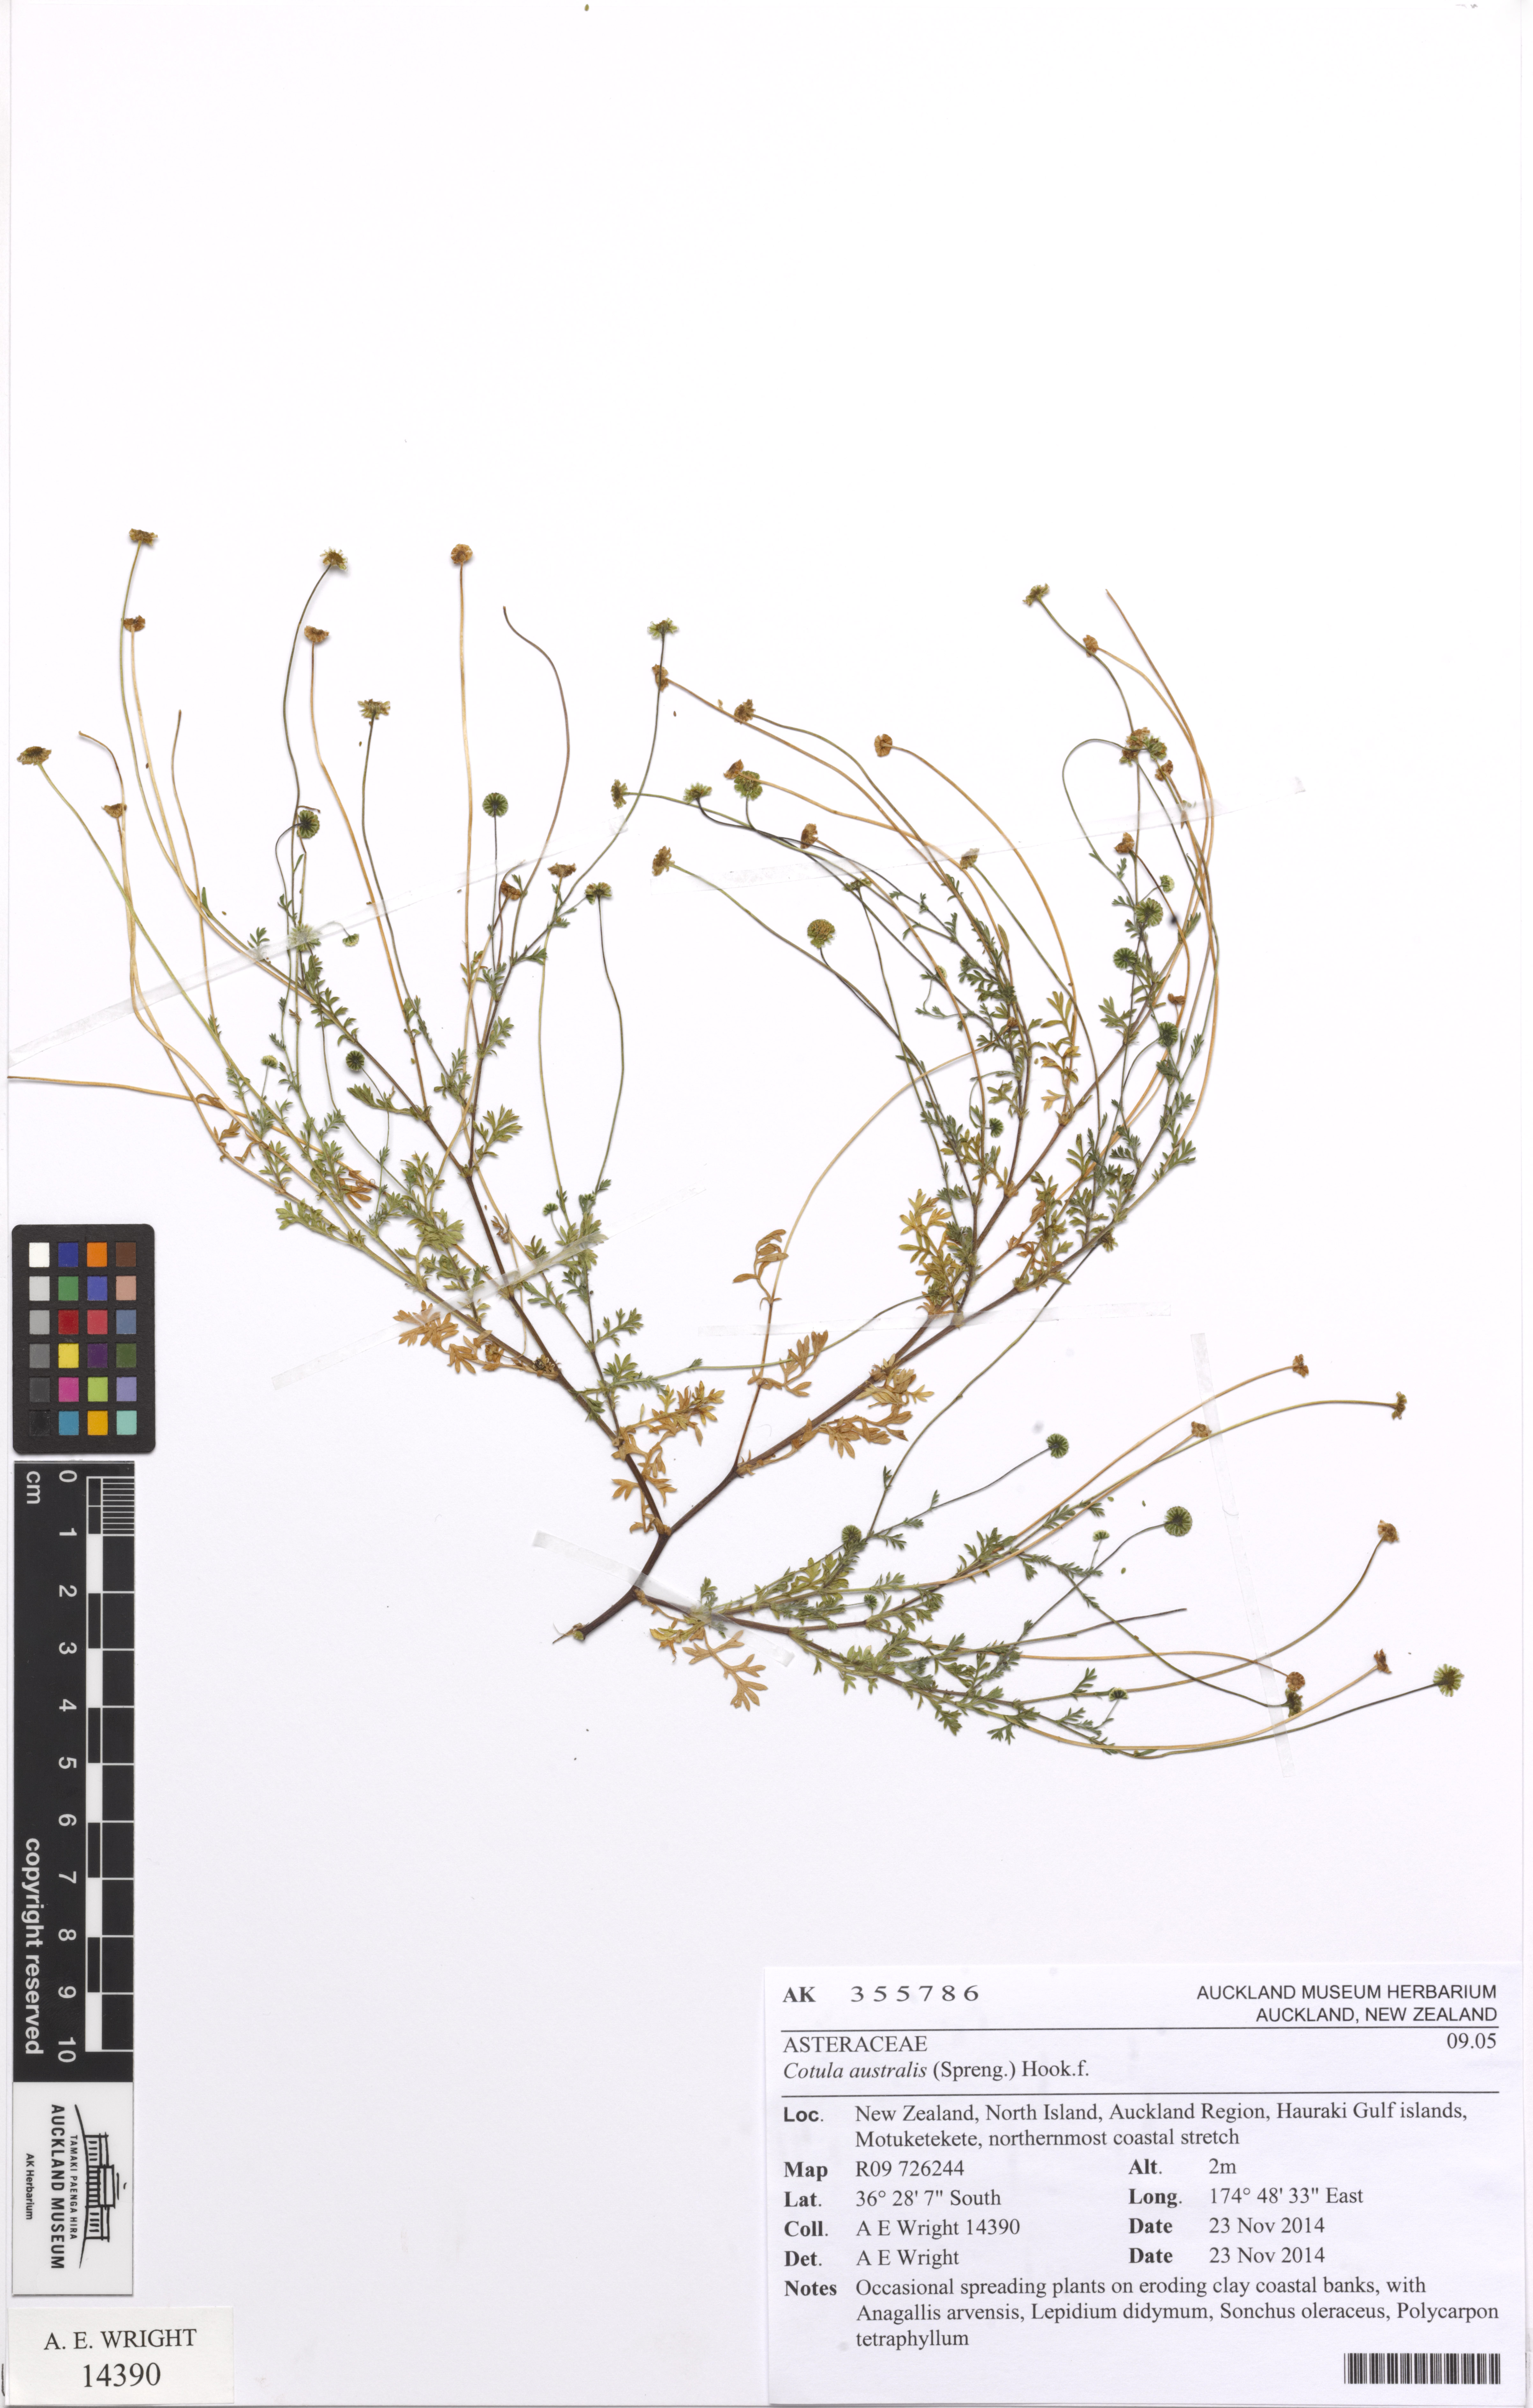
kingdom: Plantae
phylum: Tracheophyta
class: Magnoliopsida
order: Asterales
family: Asteraceae
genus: Cotula
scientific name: Cotula australis
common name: Australian waterbuttons
